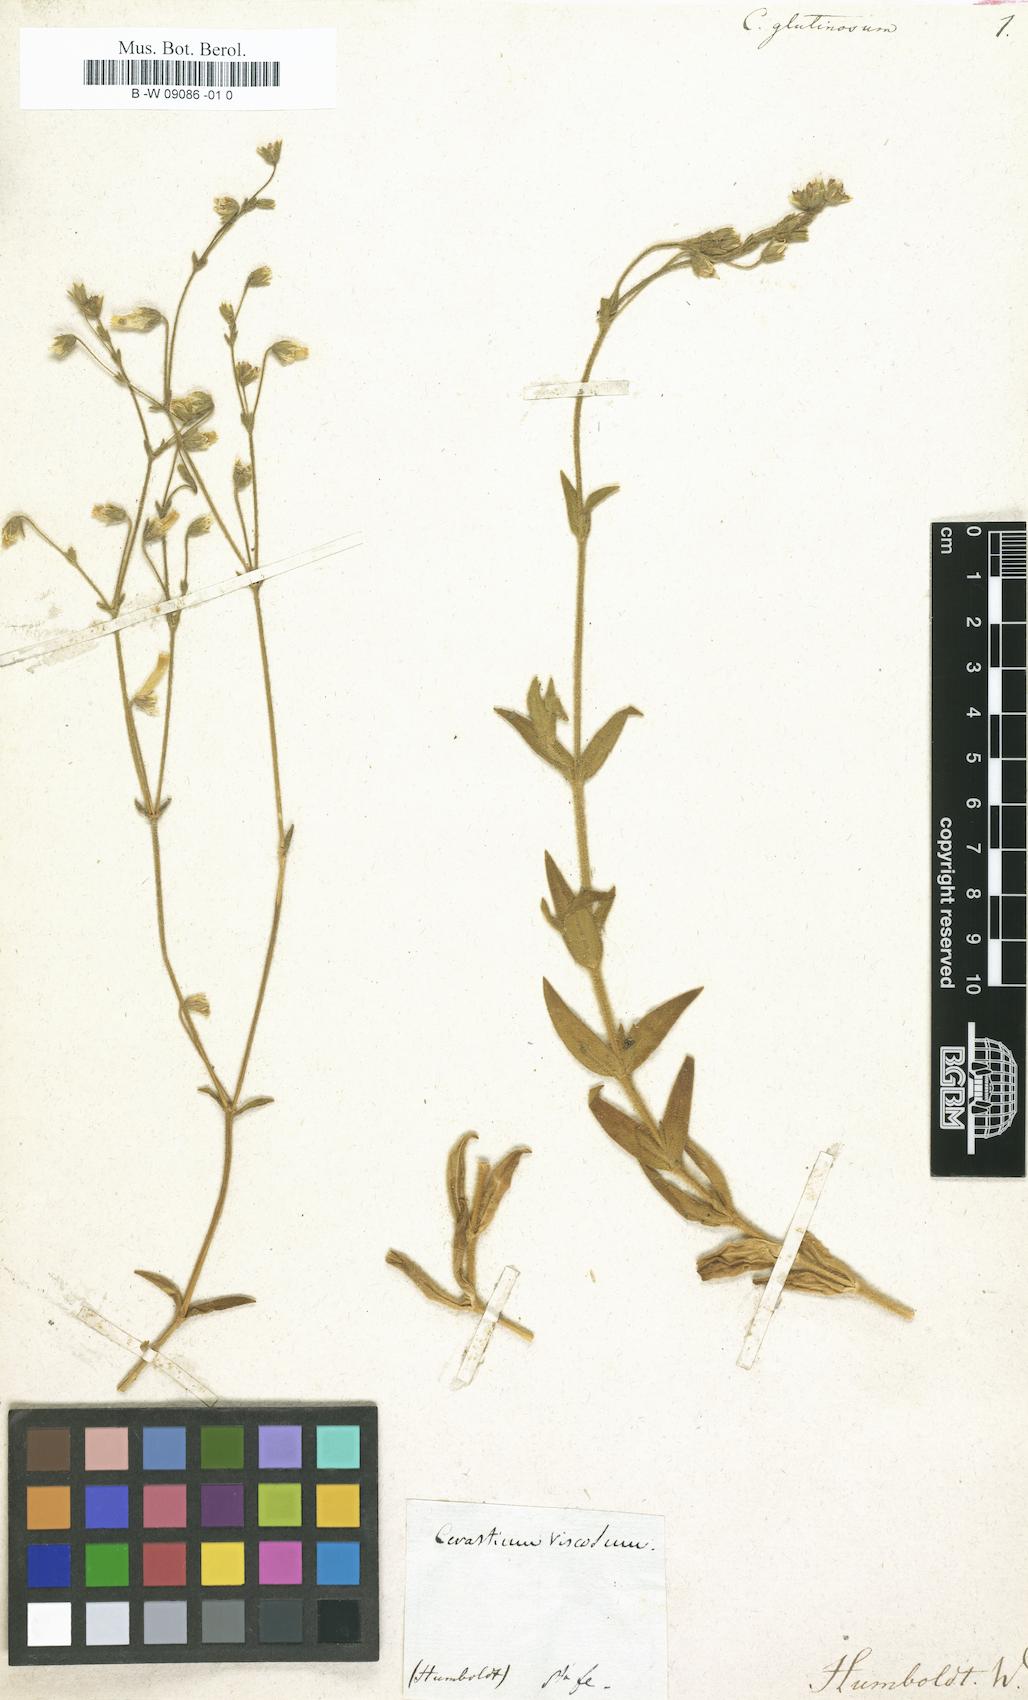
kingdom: Plantae
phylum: Tracheophyta
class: Magnoliopsida
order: Caryophyllales
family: Caryophyllaceae
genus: Cerastium
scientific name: Cerastium glutinosum
